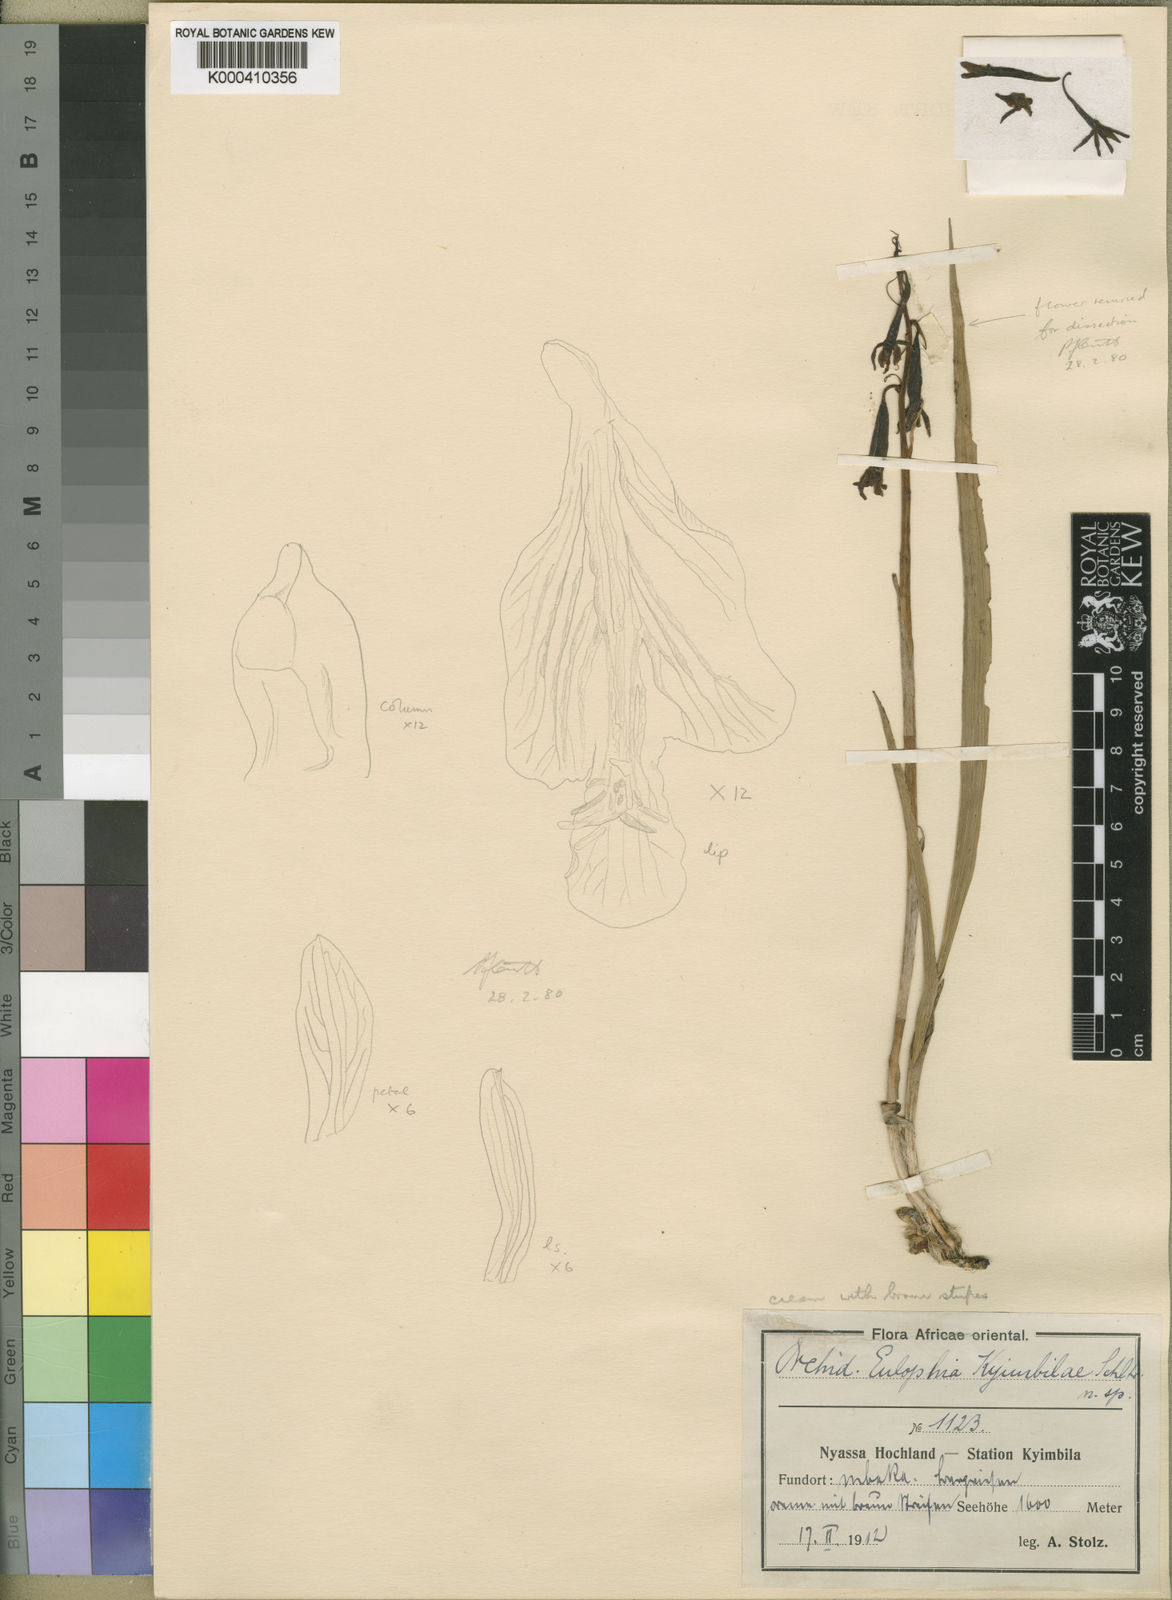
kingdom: Plantae
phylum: Tracheophyta
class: Liliopsida
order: Asparagales
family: Orchidaceae
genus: Eulophia
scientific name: Eulophia kyimbilae
